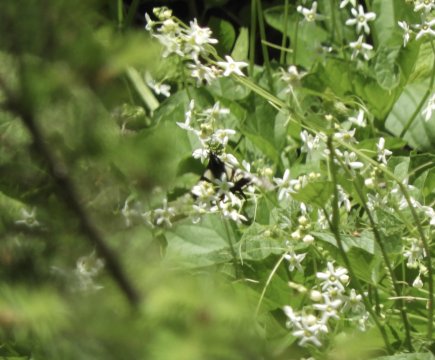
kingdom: Animalia
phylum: Arthropoda
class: Insecta
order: Lepidoptera
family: Papilionidae
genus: Pterourus
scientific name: Pterourus rutulus
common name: Western Tiger Swallowtail
